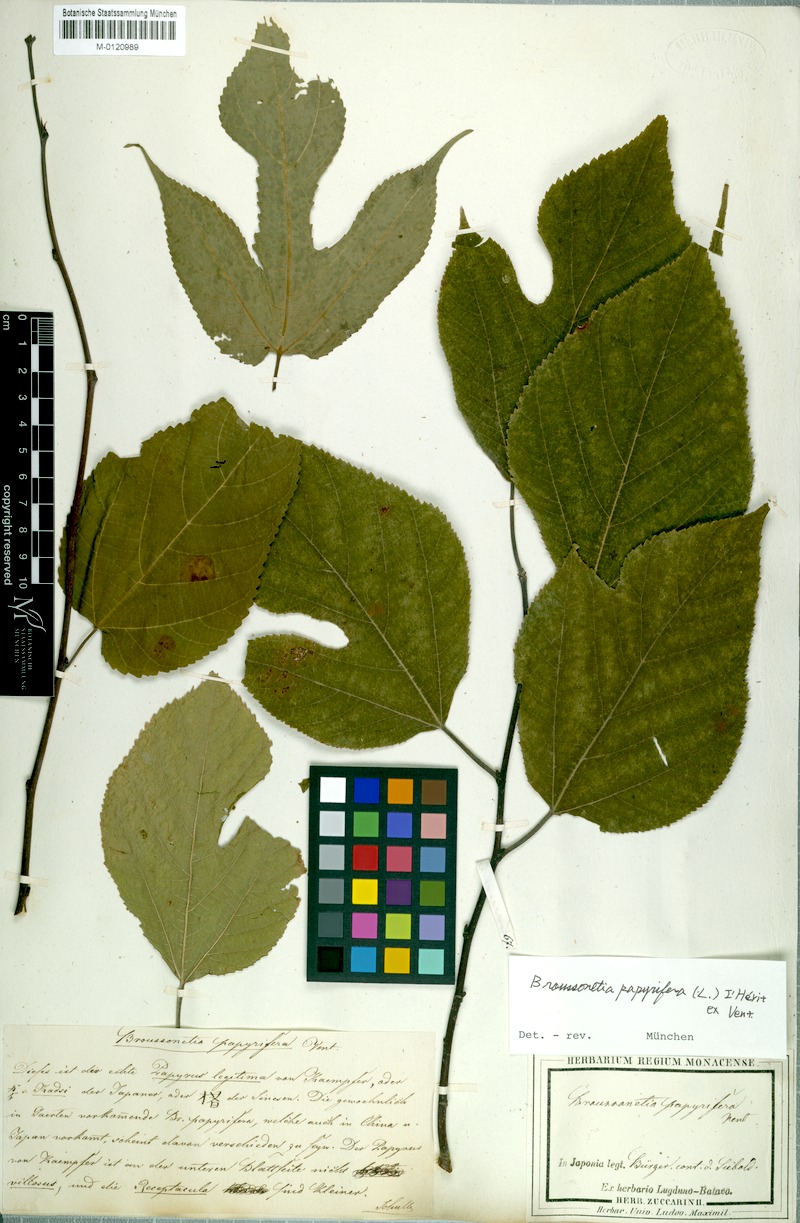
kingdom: Plantae
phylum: Tracheophyta
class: Magnoliopsida
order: Rosales
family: Moraceae
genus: Broussonetia
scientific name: Broussonetia papyrifera
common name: Paper mulberry
